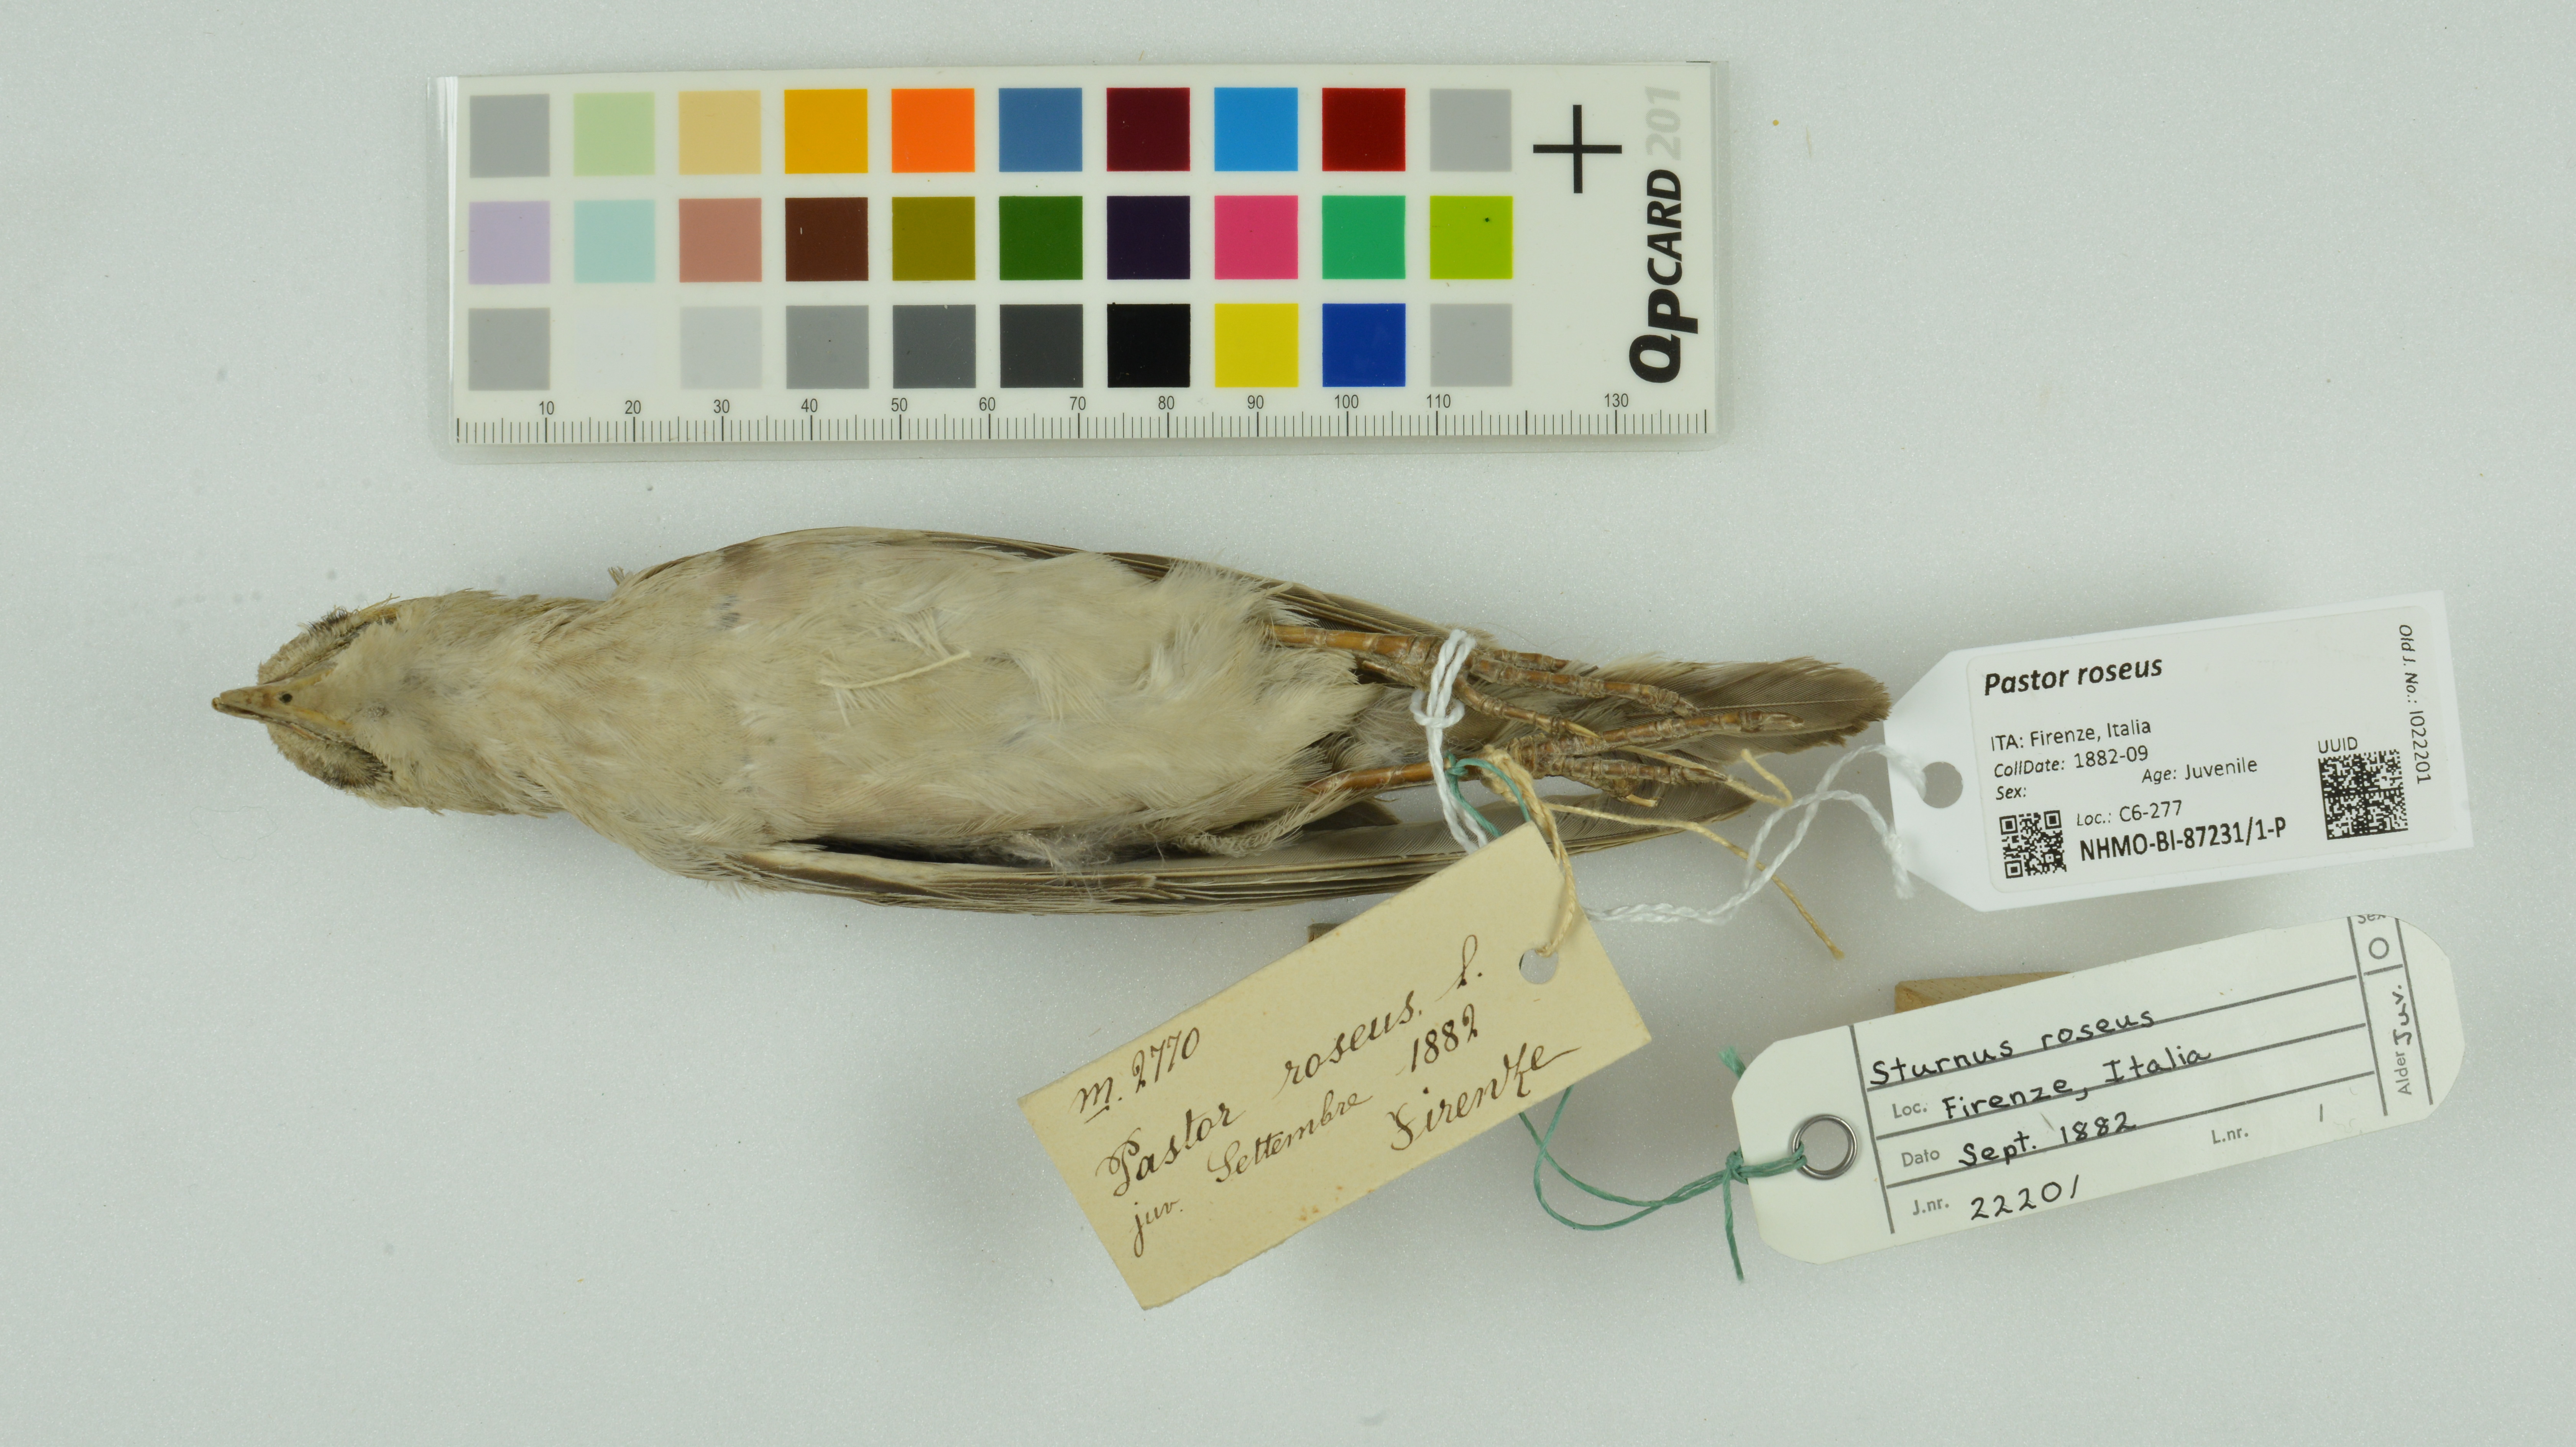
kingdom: Animalia
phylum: Chordata
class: Aves
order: Passeriformes
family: Sturnidae
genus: Pastor
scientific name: Pastor roseus
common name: Rosy starling
